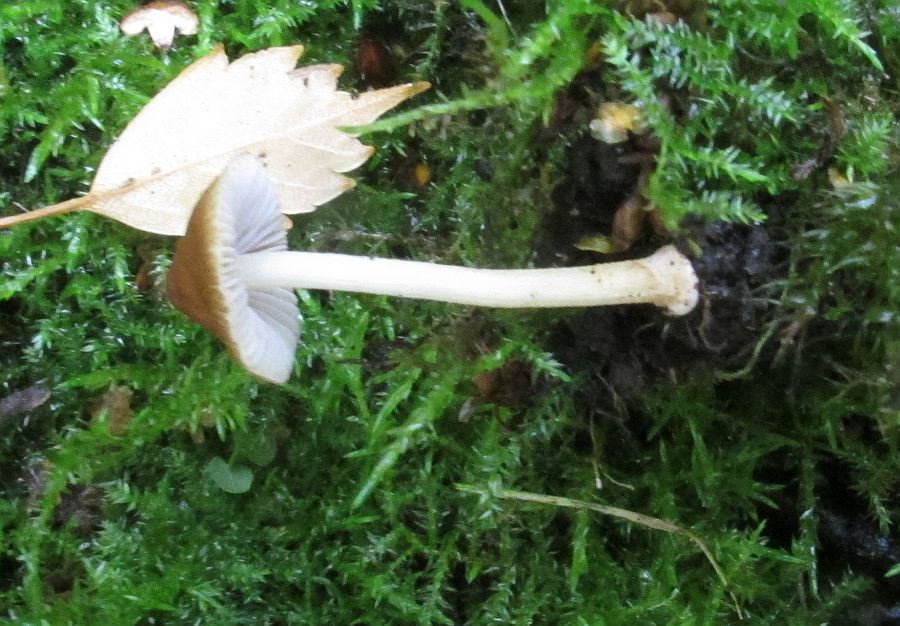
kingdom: Fungi
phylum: Basidiomycota
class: Agaricomycetes
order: Agaricales
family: Inocybaceae
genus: Inocybe
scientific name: Inocybe salicis
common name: pile-trævlhat
